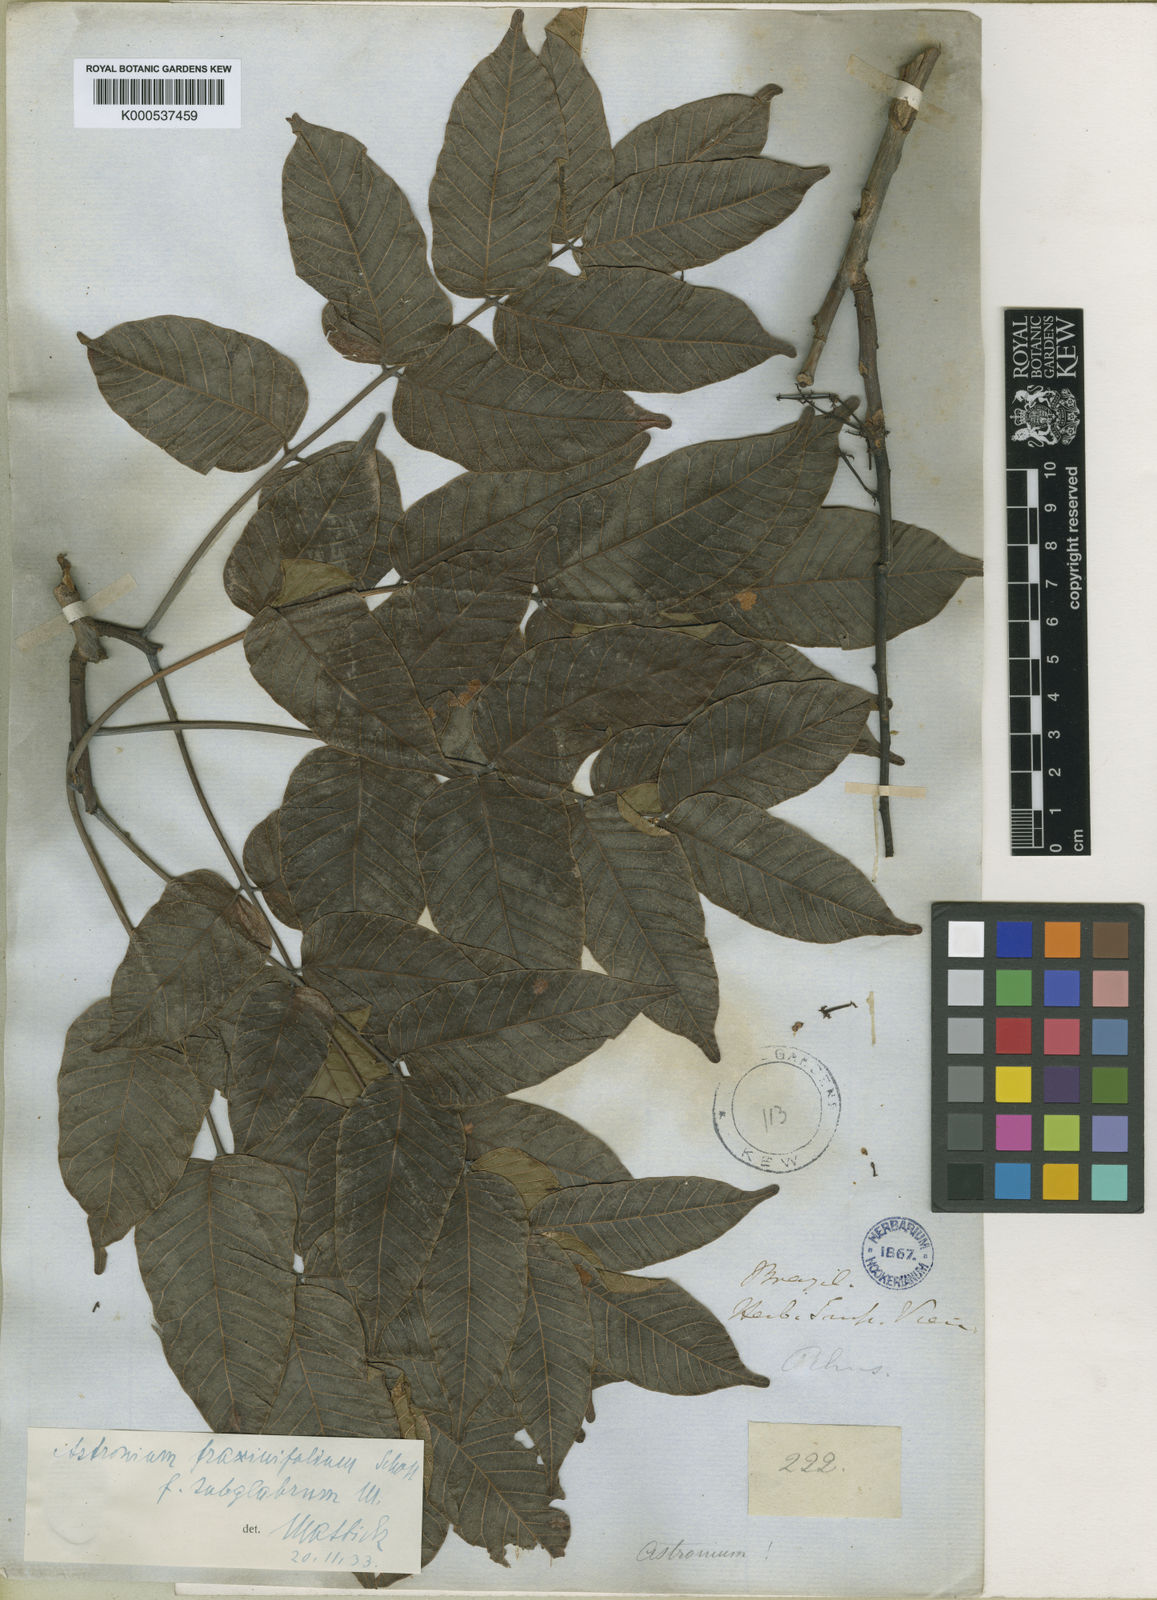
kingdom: Plantae
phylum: Tracheophyta
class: Magnoliopsida
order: Sapindales
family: Anacardiaceae
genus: Astronium
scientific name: Astronium fraxinifolium
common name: Tigerwood
